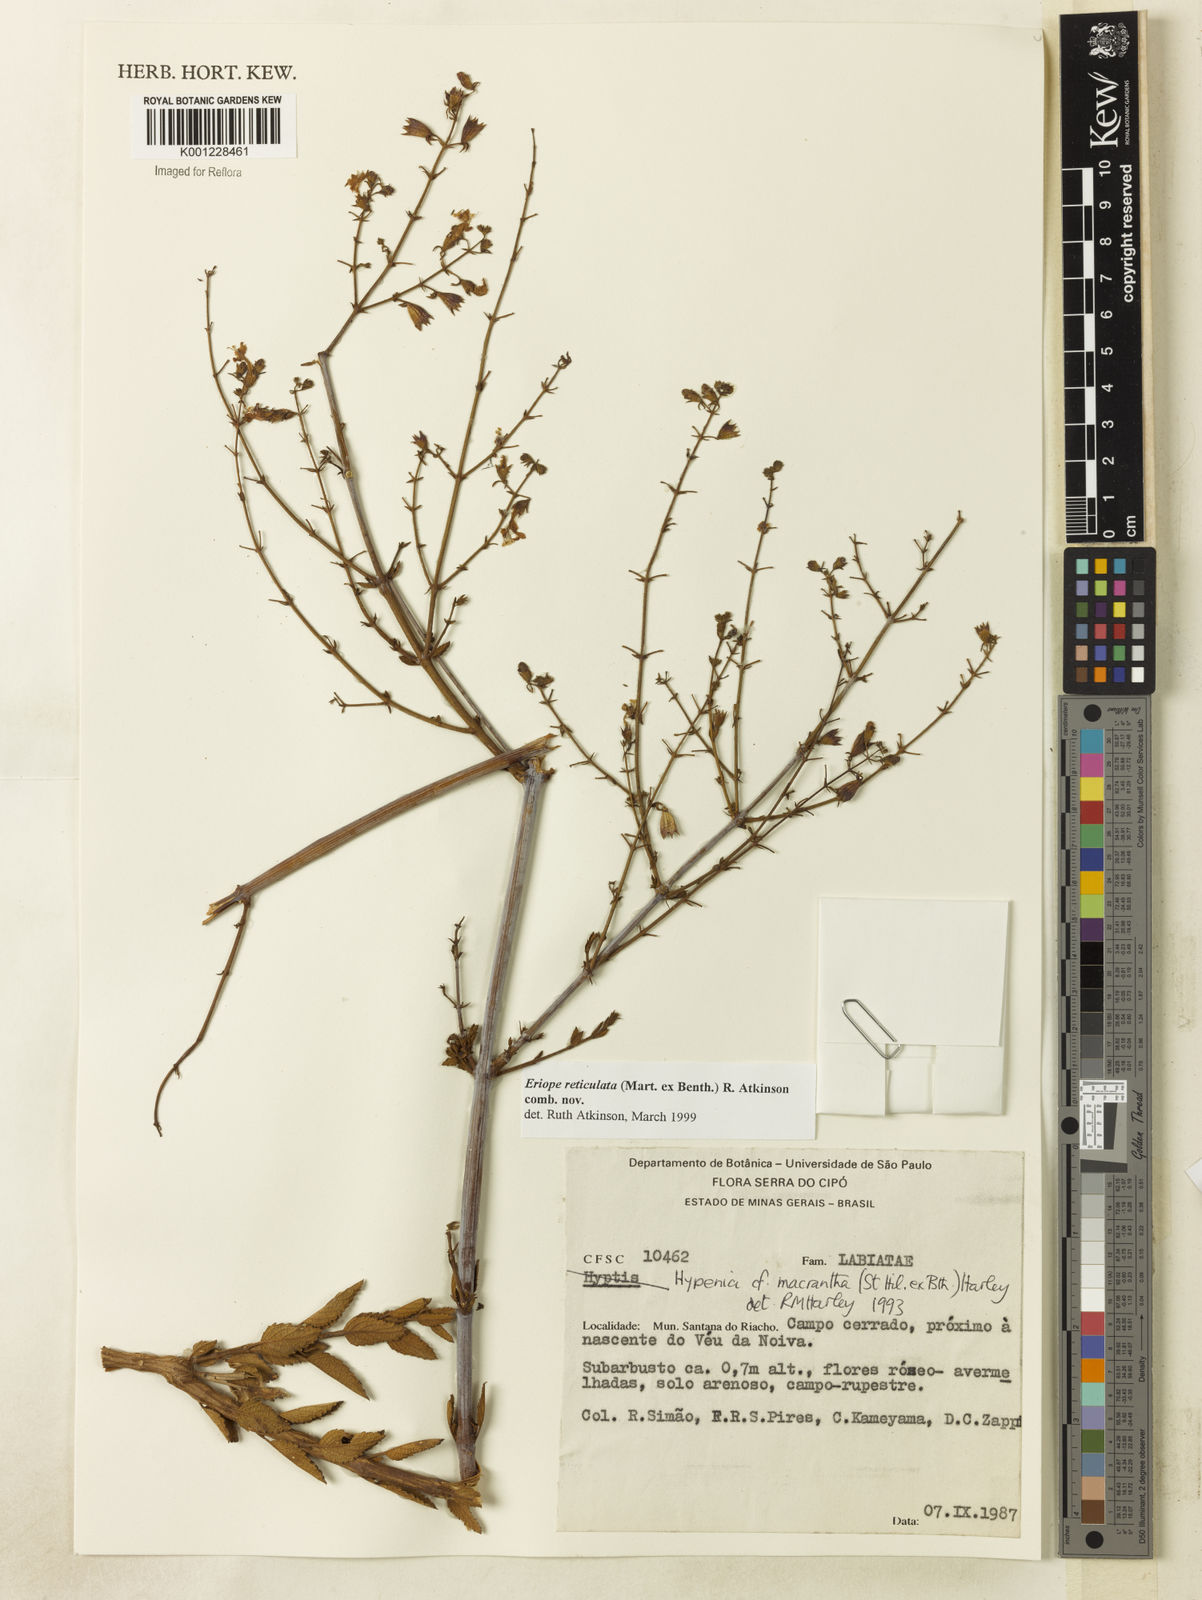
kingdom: Plantae
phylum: Tracheophyta
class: Magnoliopsida
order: Lamiales
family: Lamiaceae
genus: Hypenia
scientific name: Hypenia reticulata
